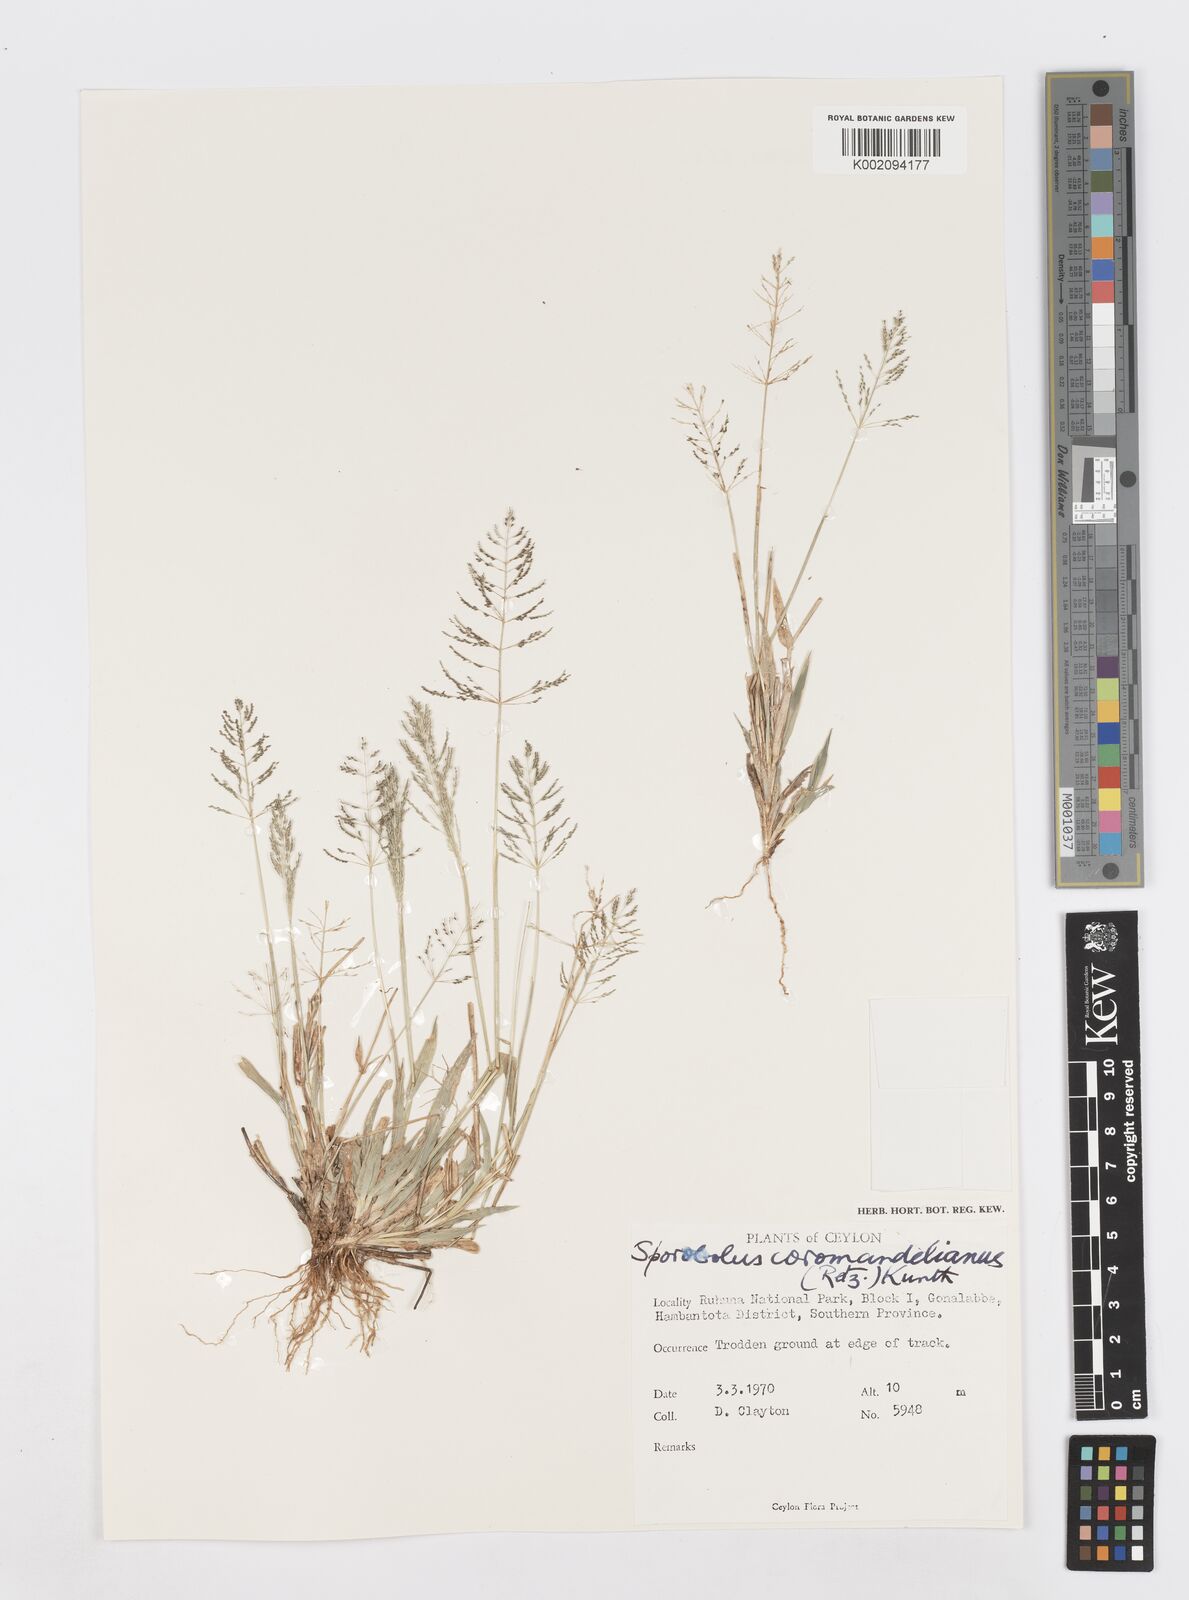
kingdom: Plantae
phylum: Tracheophyta
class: Liliopsida
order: Poales
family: Poaceae
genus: Sporobolus
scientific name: Sporobolus coromandelianus
